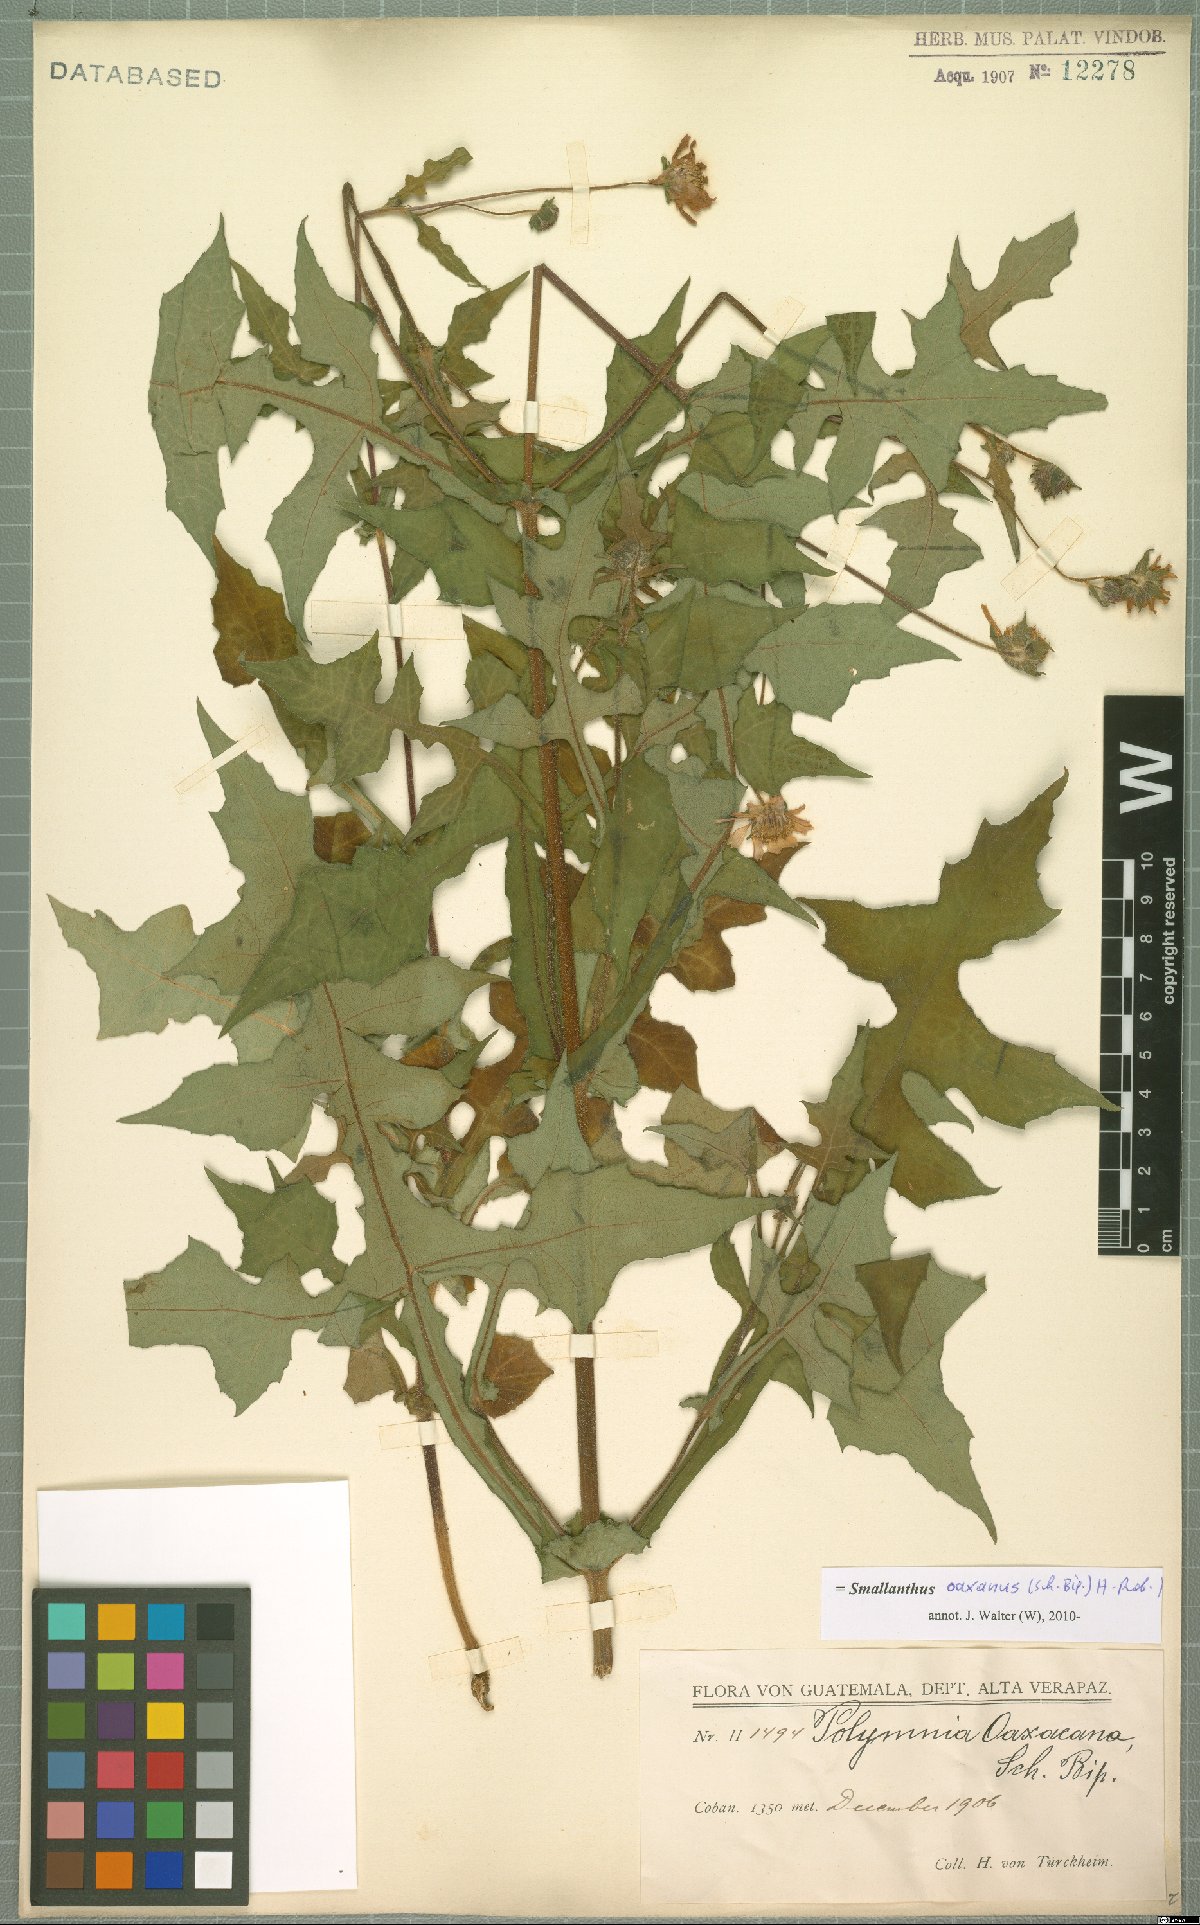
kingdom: Plantae
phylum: Tracheophyta
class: Magnoliopsida
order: Asterales
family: Asteraceae
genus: Smallanthus
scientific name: Smallanthus oaxacanus
